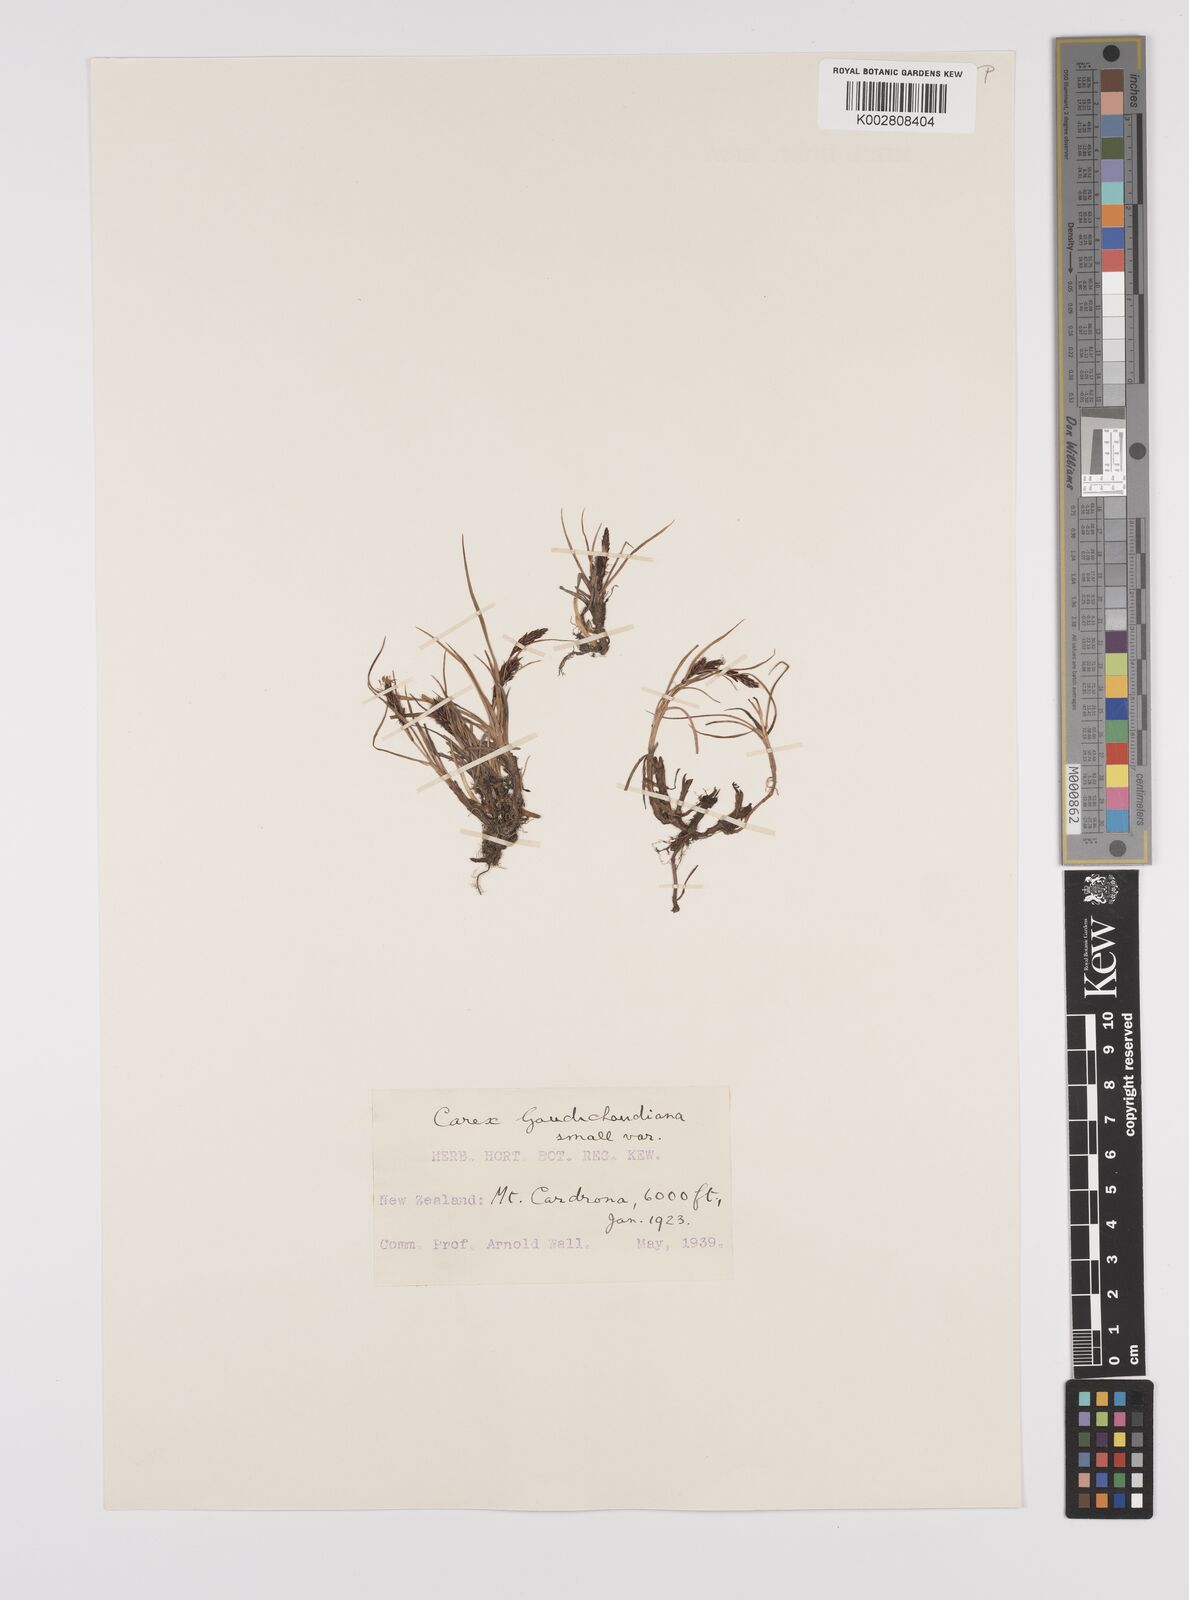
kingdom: Plantae
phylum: Tracheophyta
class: Liliopsida
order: Poales
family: Cyperaceae
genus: Carex
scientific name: Carex gaudichaudiana
